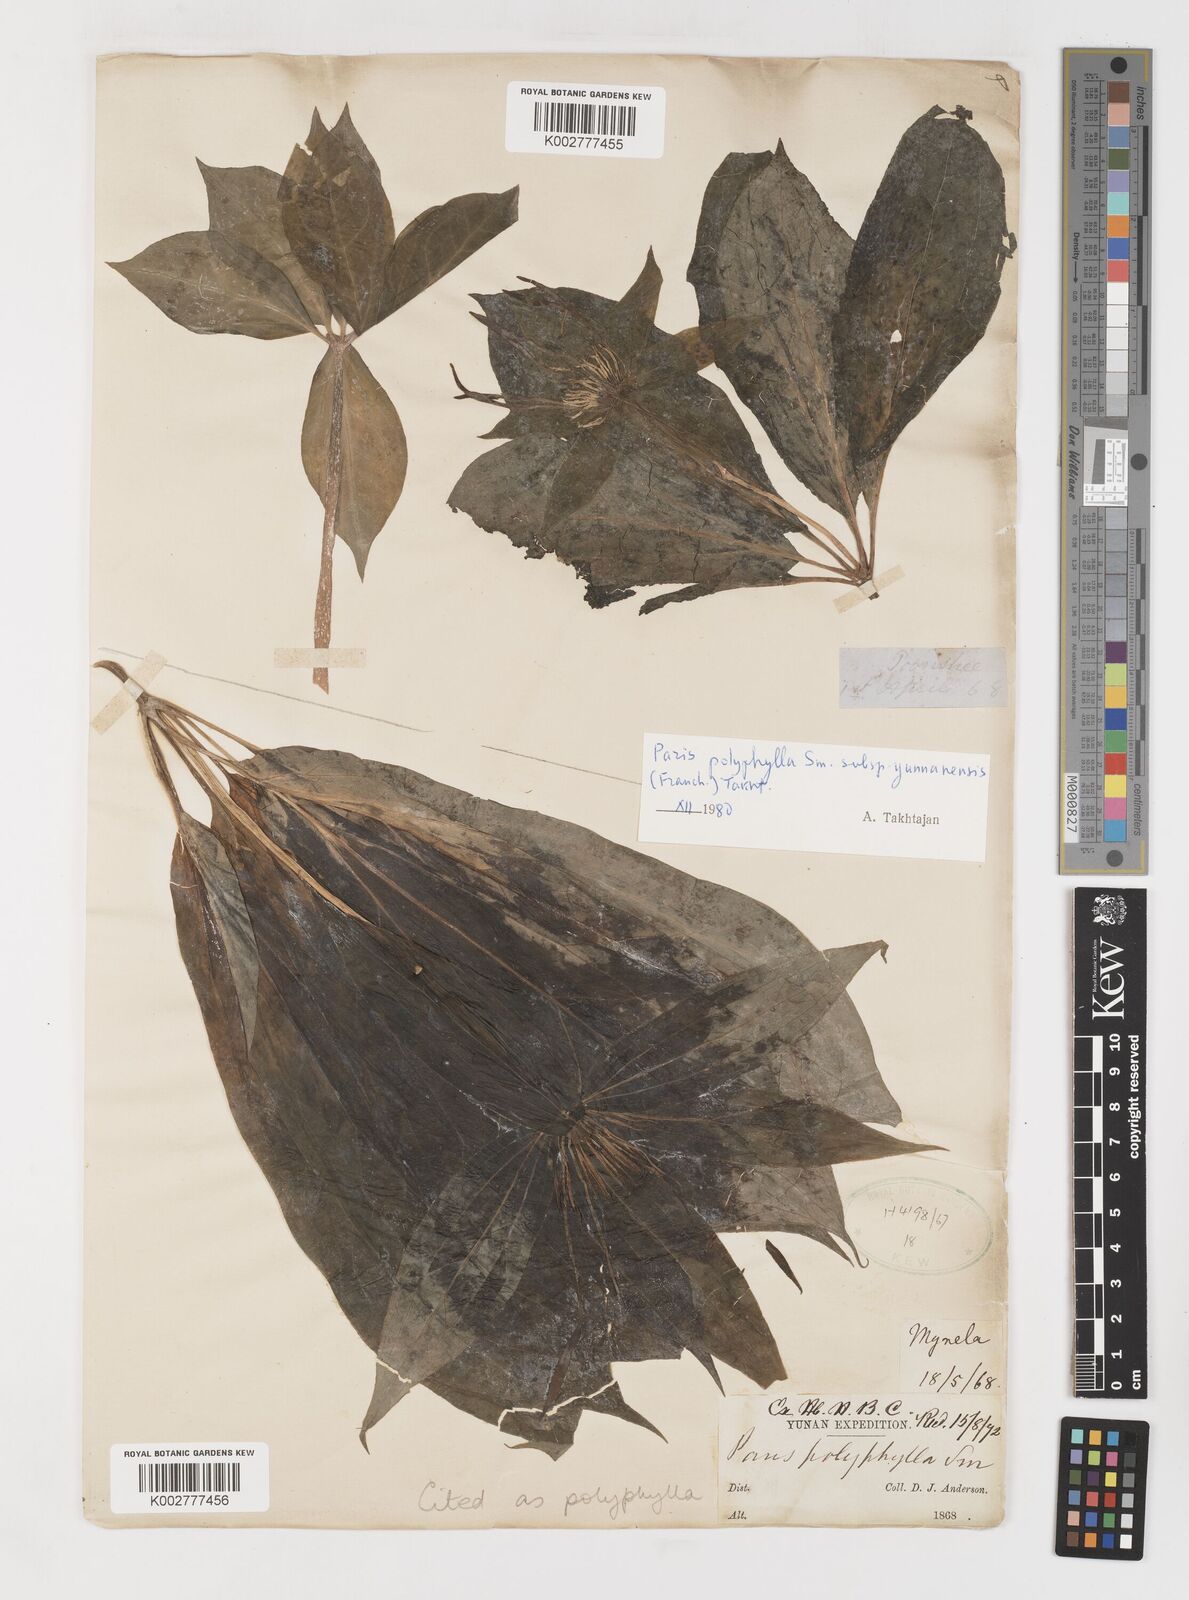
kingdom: Plantae
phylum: Tracheophyta
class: Liliopsida
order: Liliales
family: Melanthiaceae
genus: Paris
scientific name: Paris polyphylla
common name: Love apple
